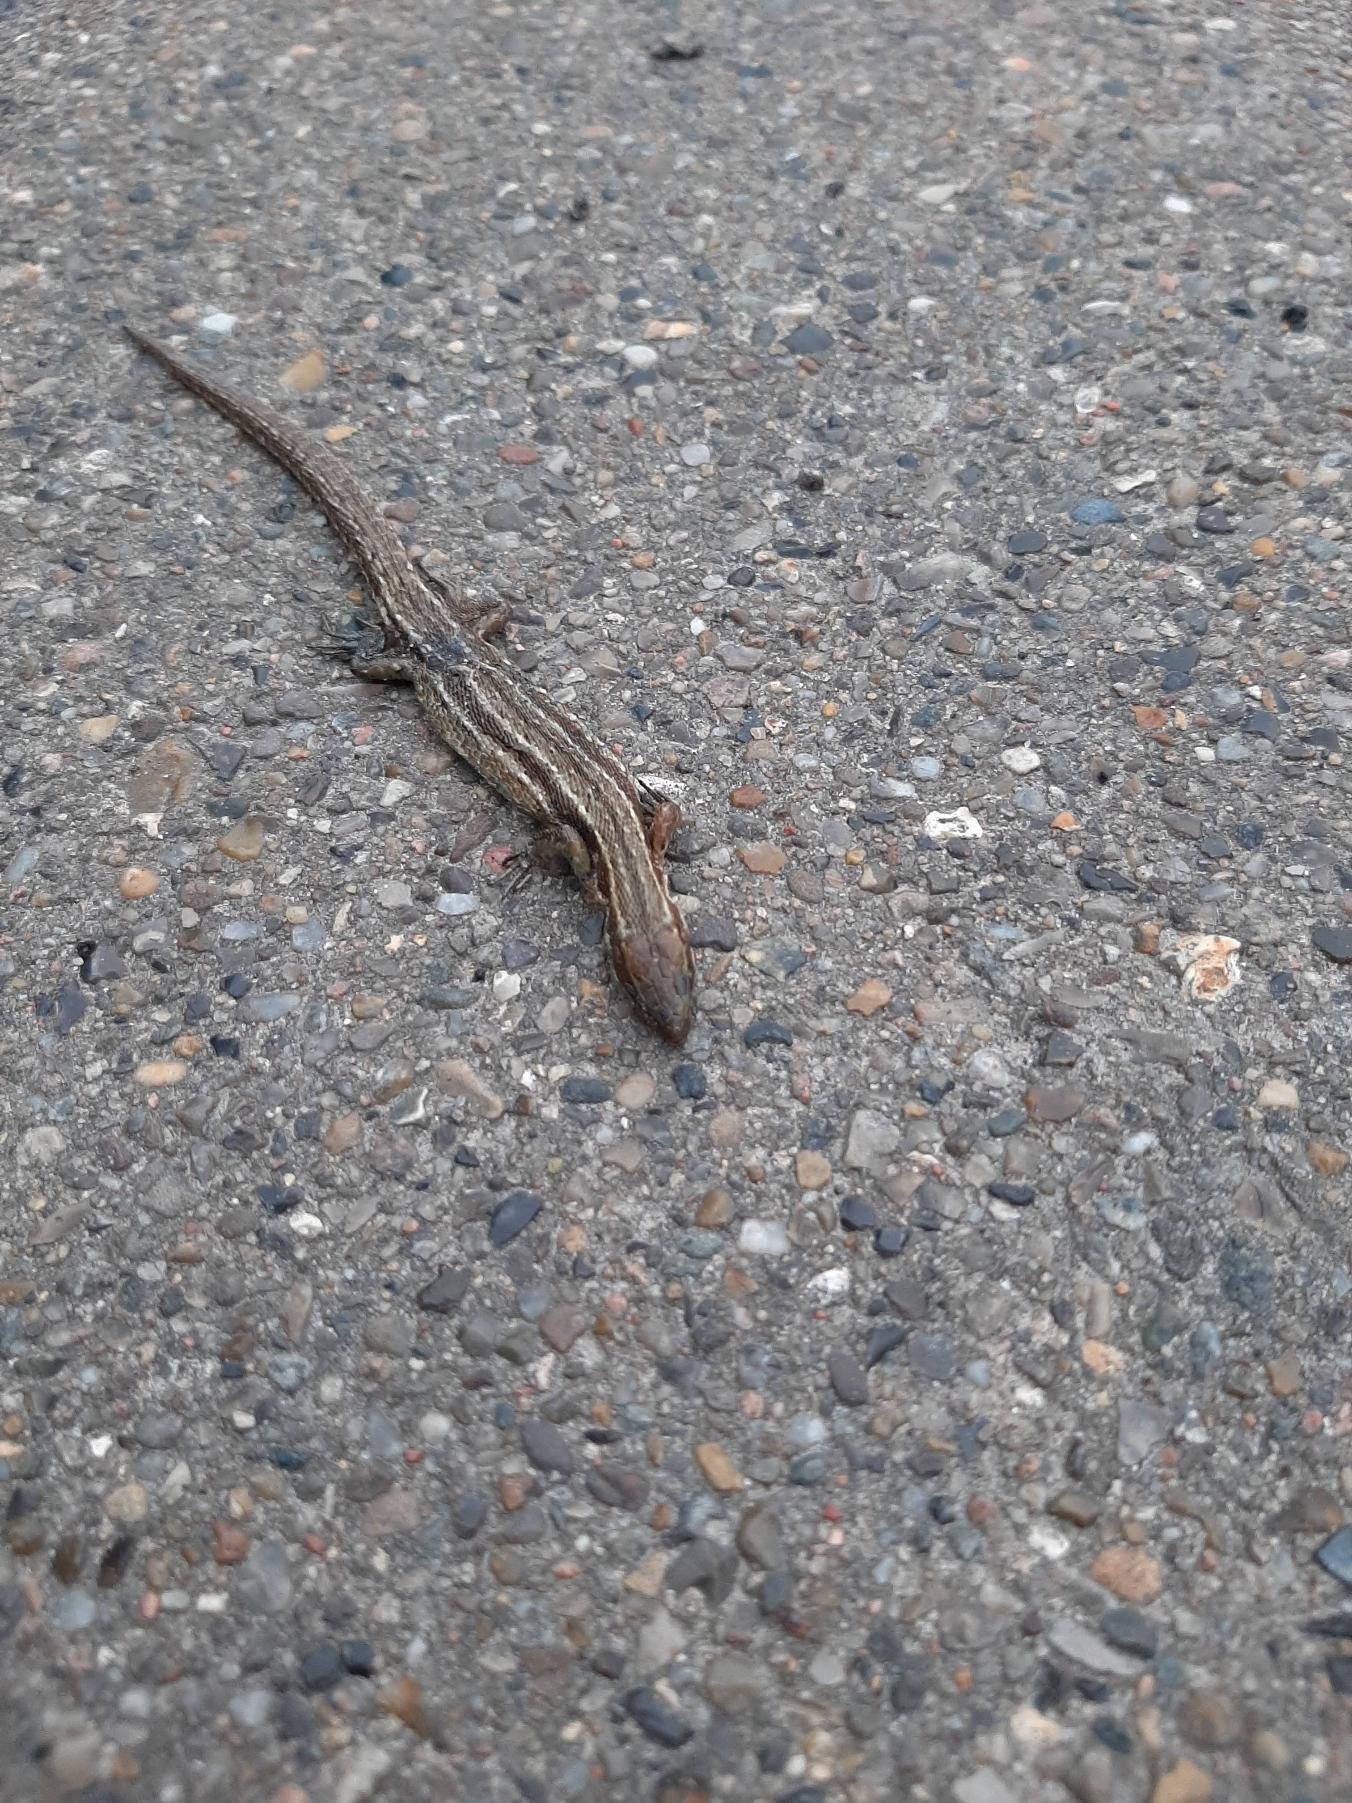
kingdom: Animalia
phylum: Chordata
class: Squamata
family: Lacertidae
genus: Zootoca
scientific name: Zootoca vivipara
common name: Skovfirben
